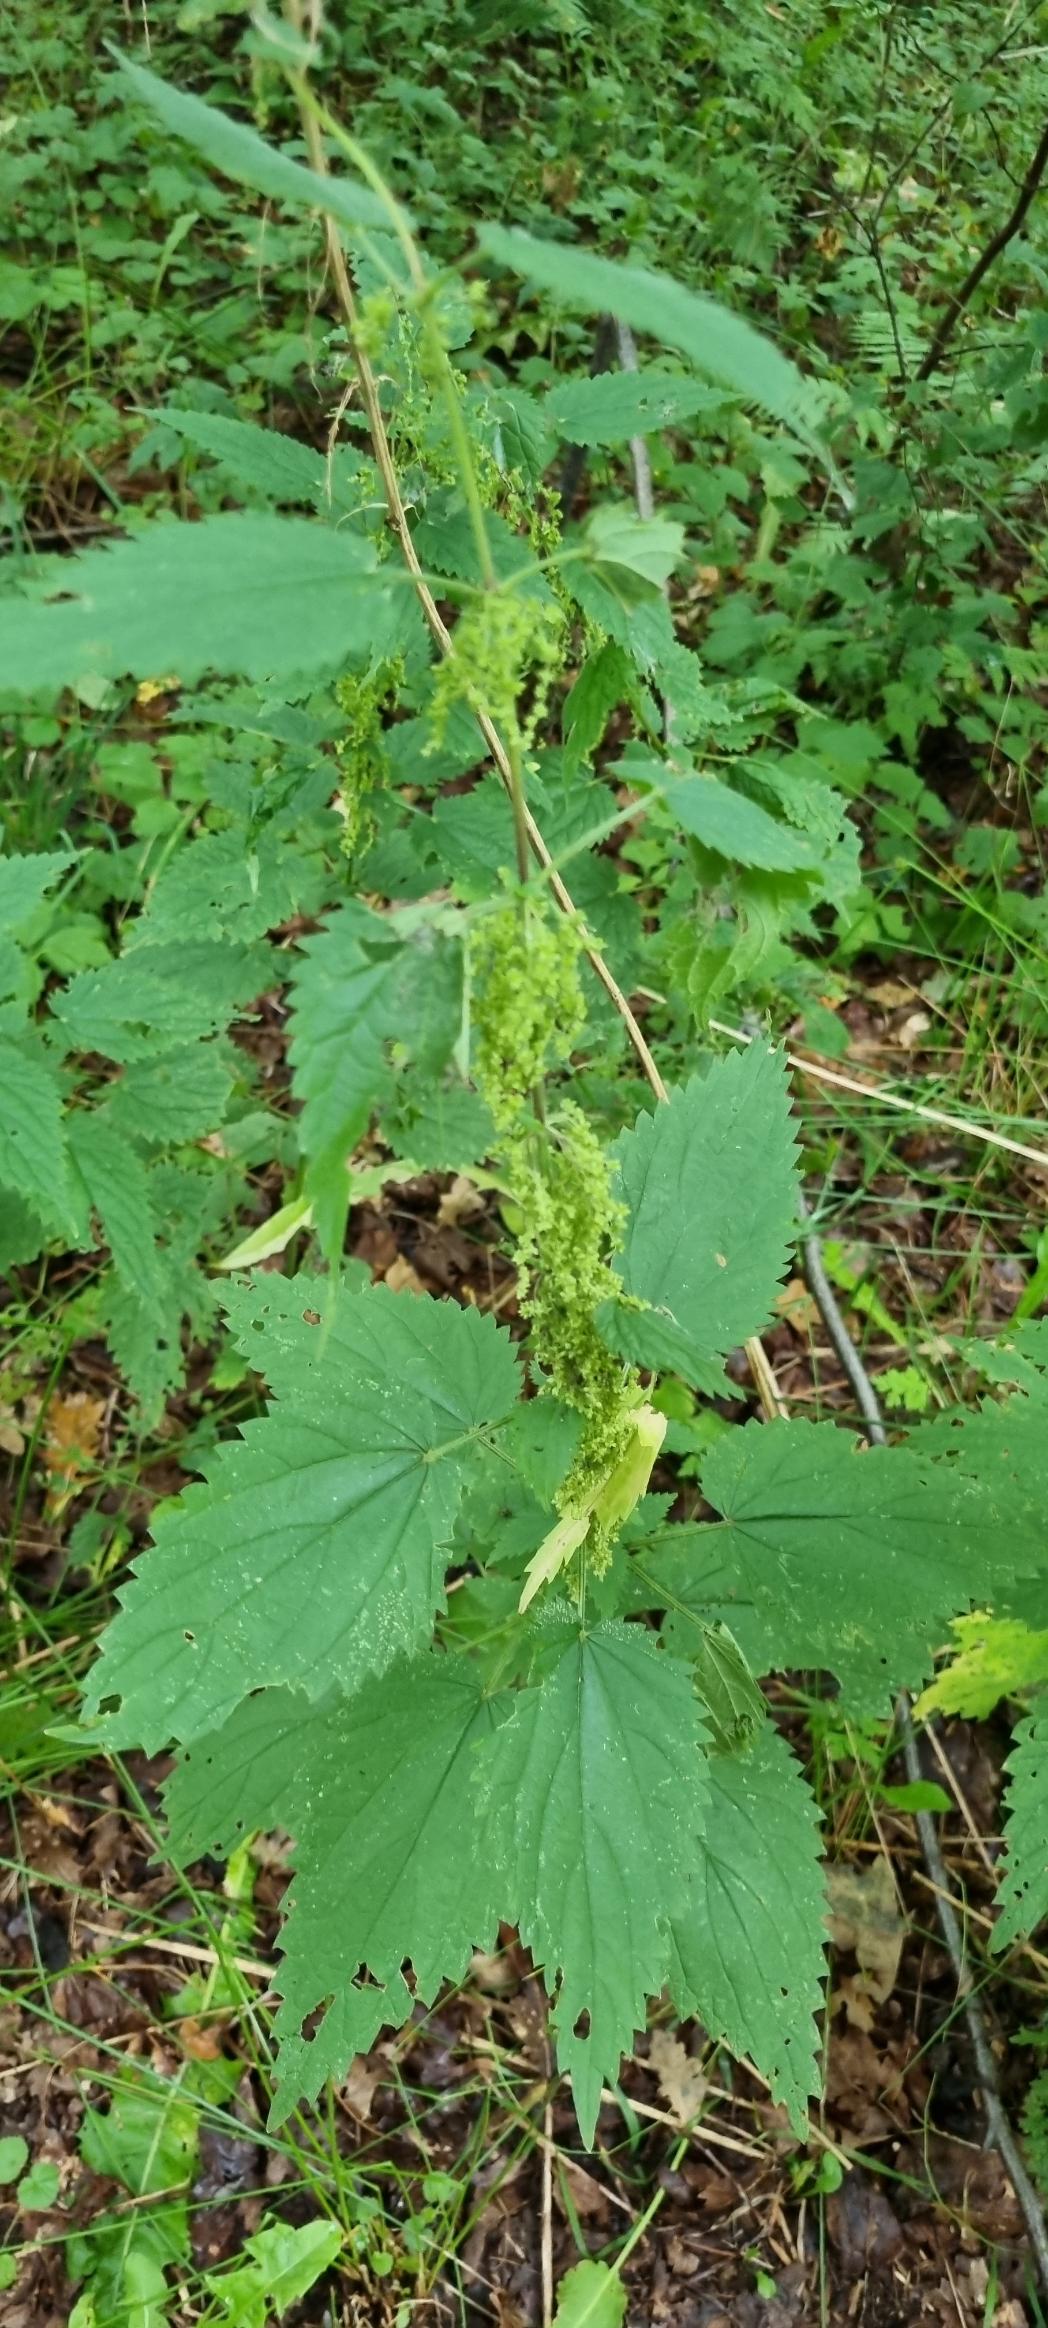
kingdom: Plantae
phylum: Tracheophyta
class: Magnoliopsida
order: Rosales
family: Urticaceae
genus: Urtica
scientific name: Urtica dioica
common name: Stor nælde
